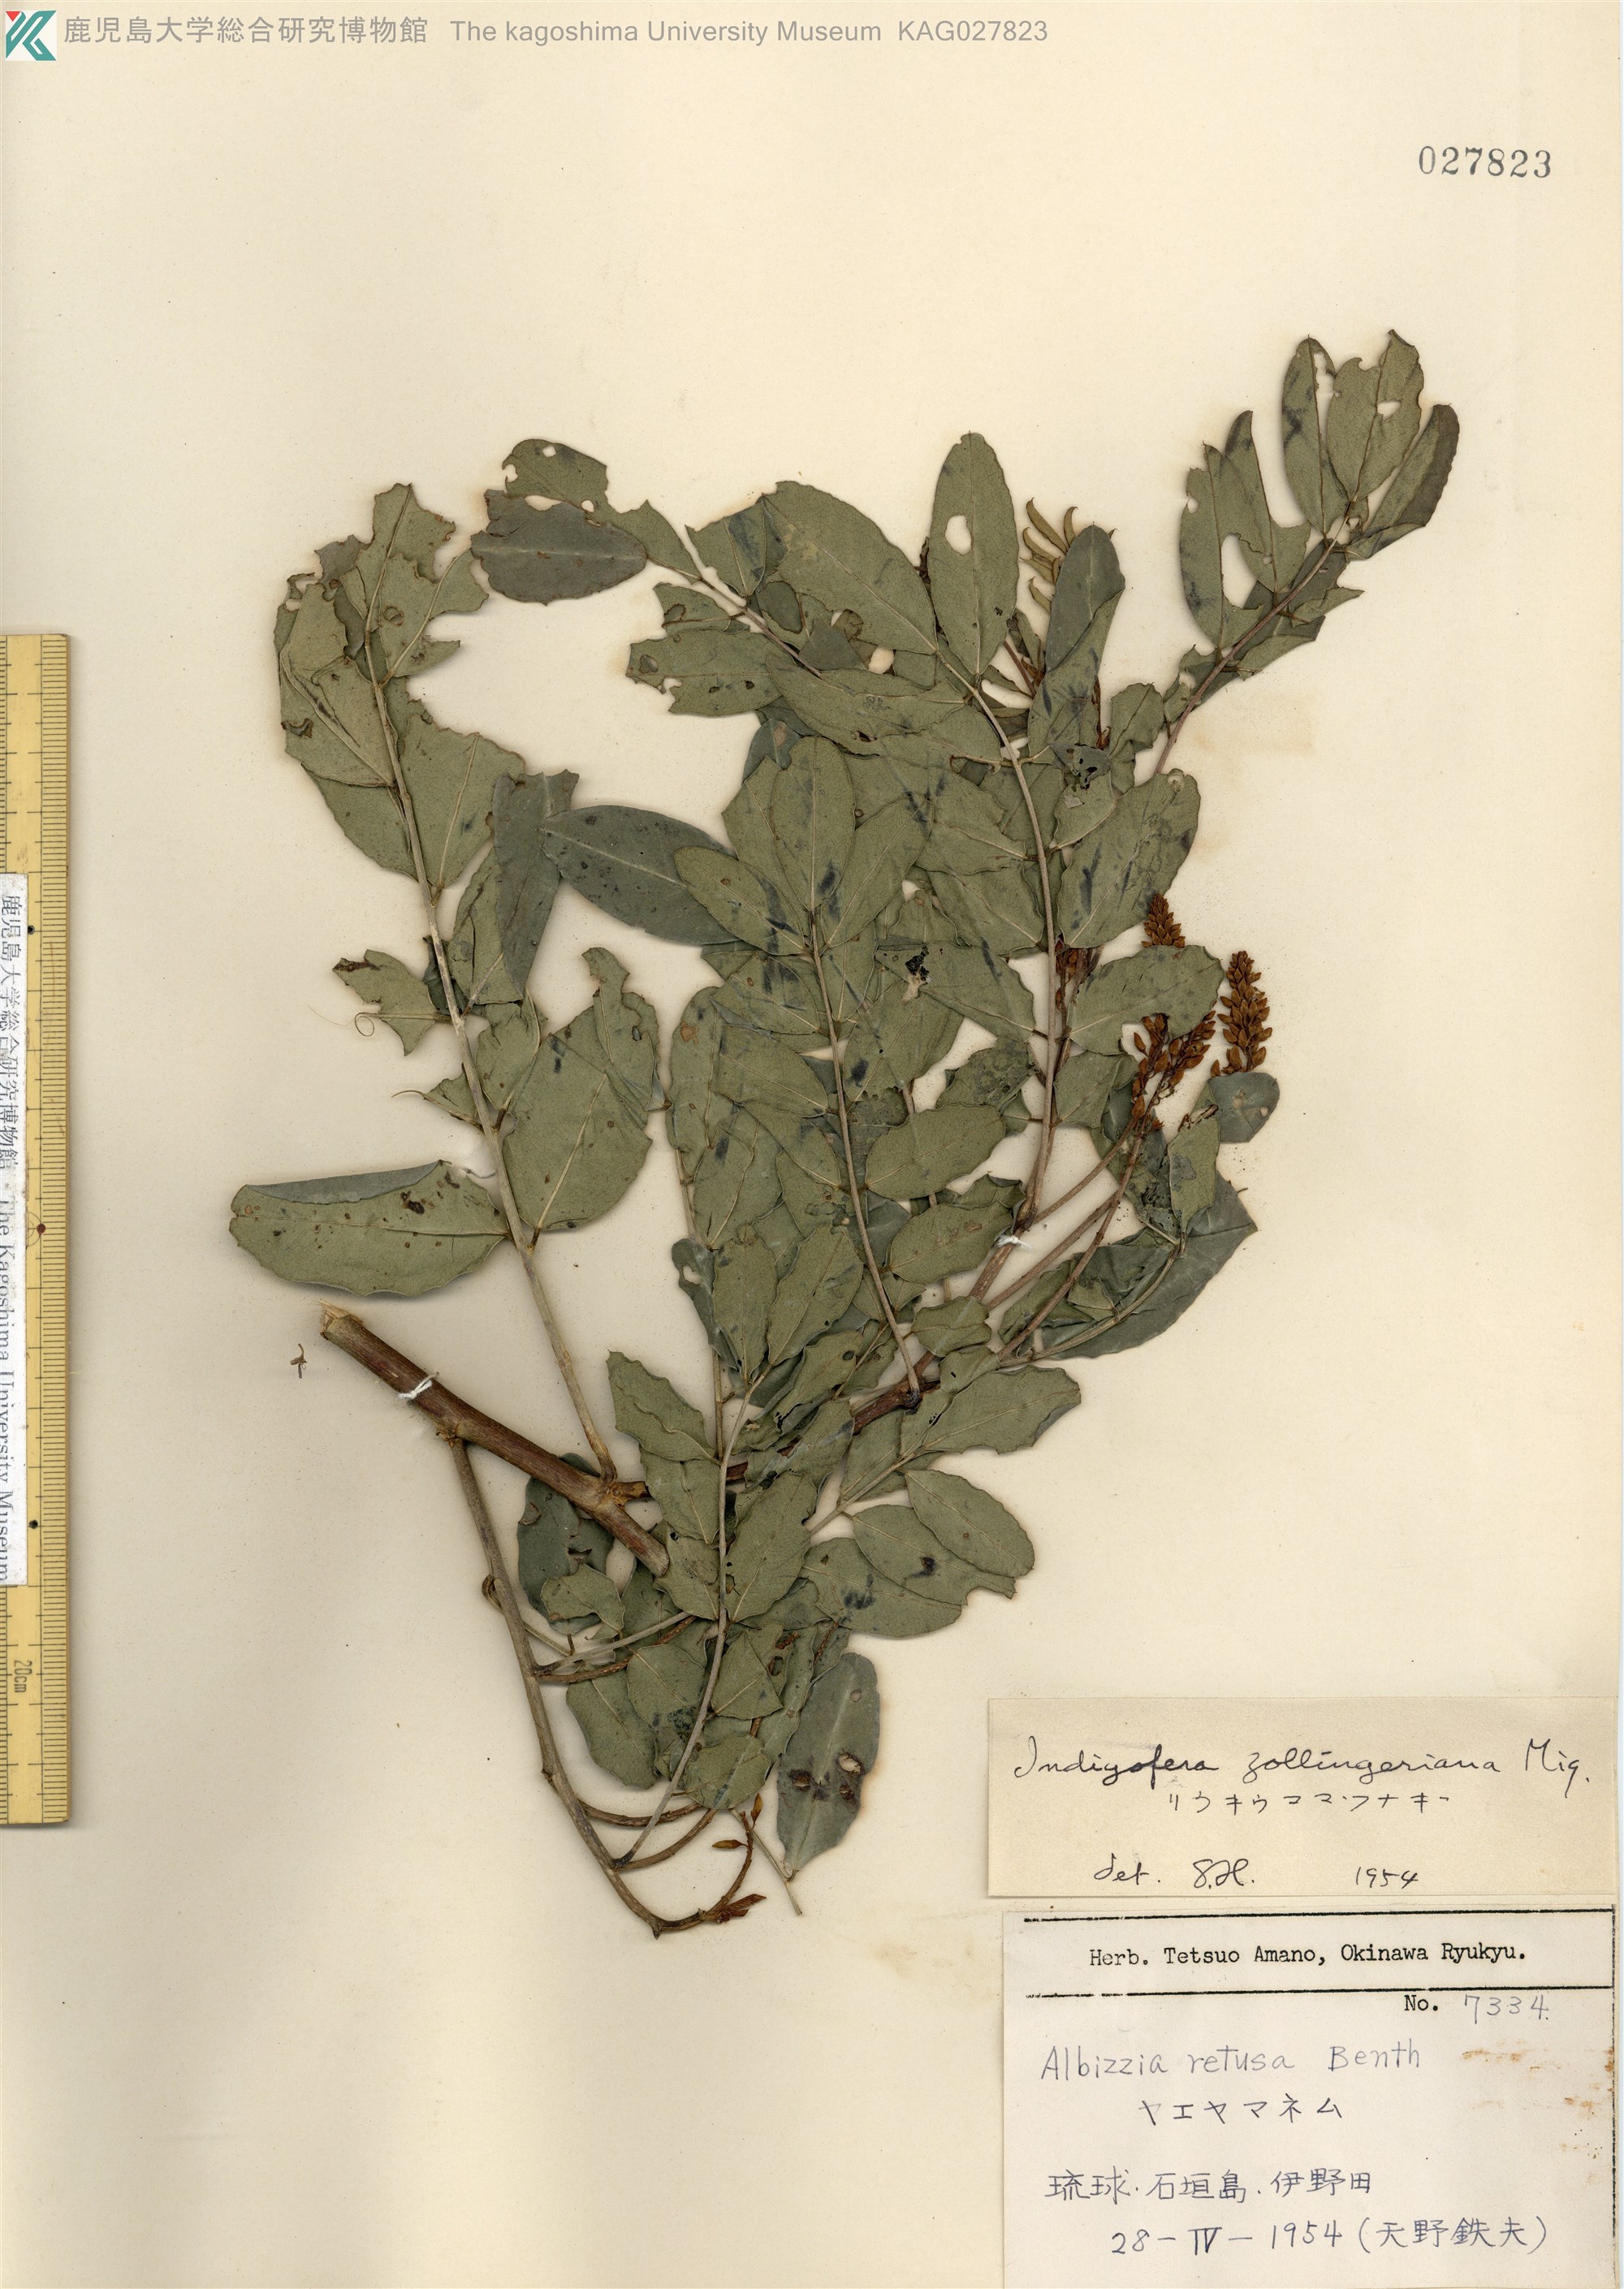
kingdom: Plantae
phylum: Tracheophyta
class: Magnoliopsida
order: Fabales
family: Fabaceae
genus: Indigofera
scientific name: Indigofera zollingeriana
